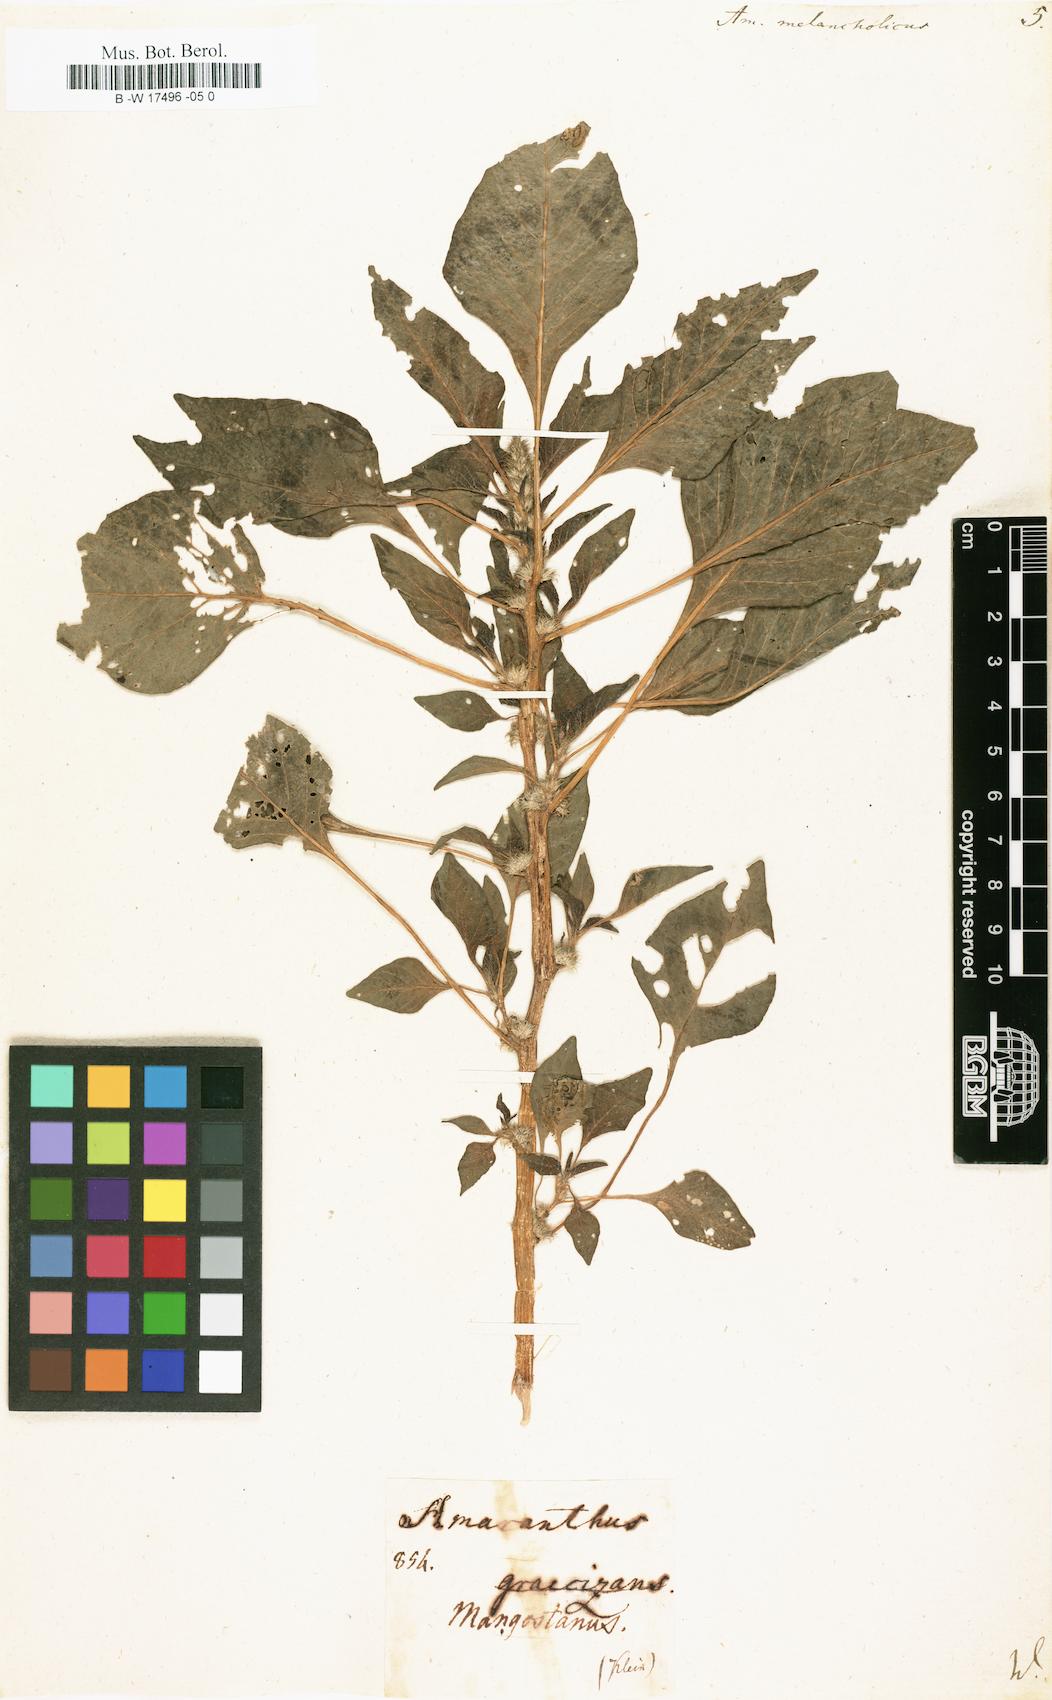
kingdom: Plantae
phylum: Tracheophyta
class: Magnoliopsida
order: Caryophyllales
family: Amaranthaceae
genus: Amaranthus
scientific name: Amaranthus tricolor
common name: Joseph's-coat
